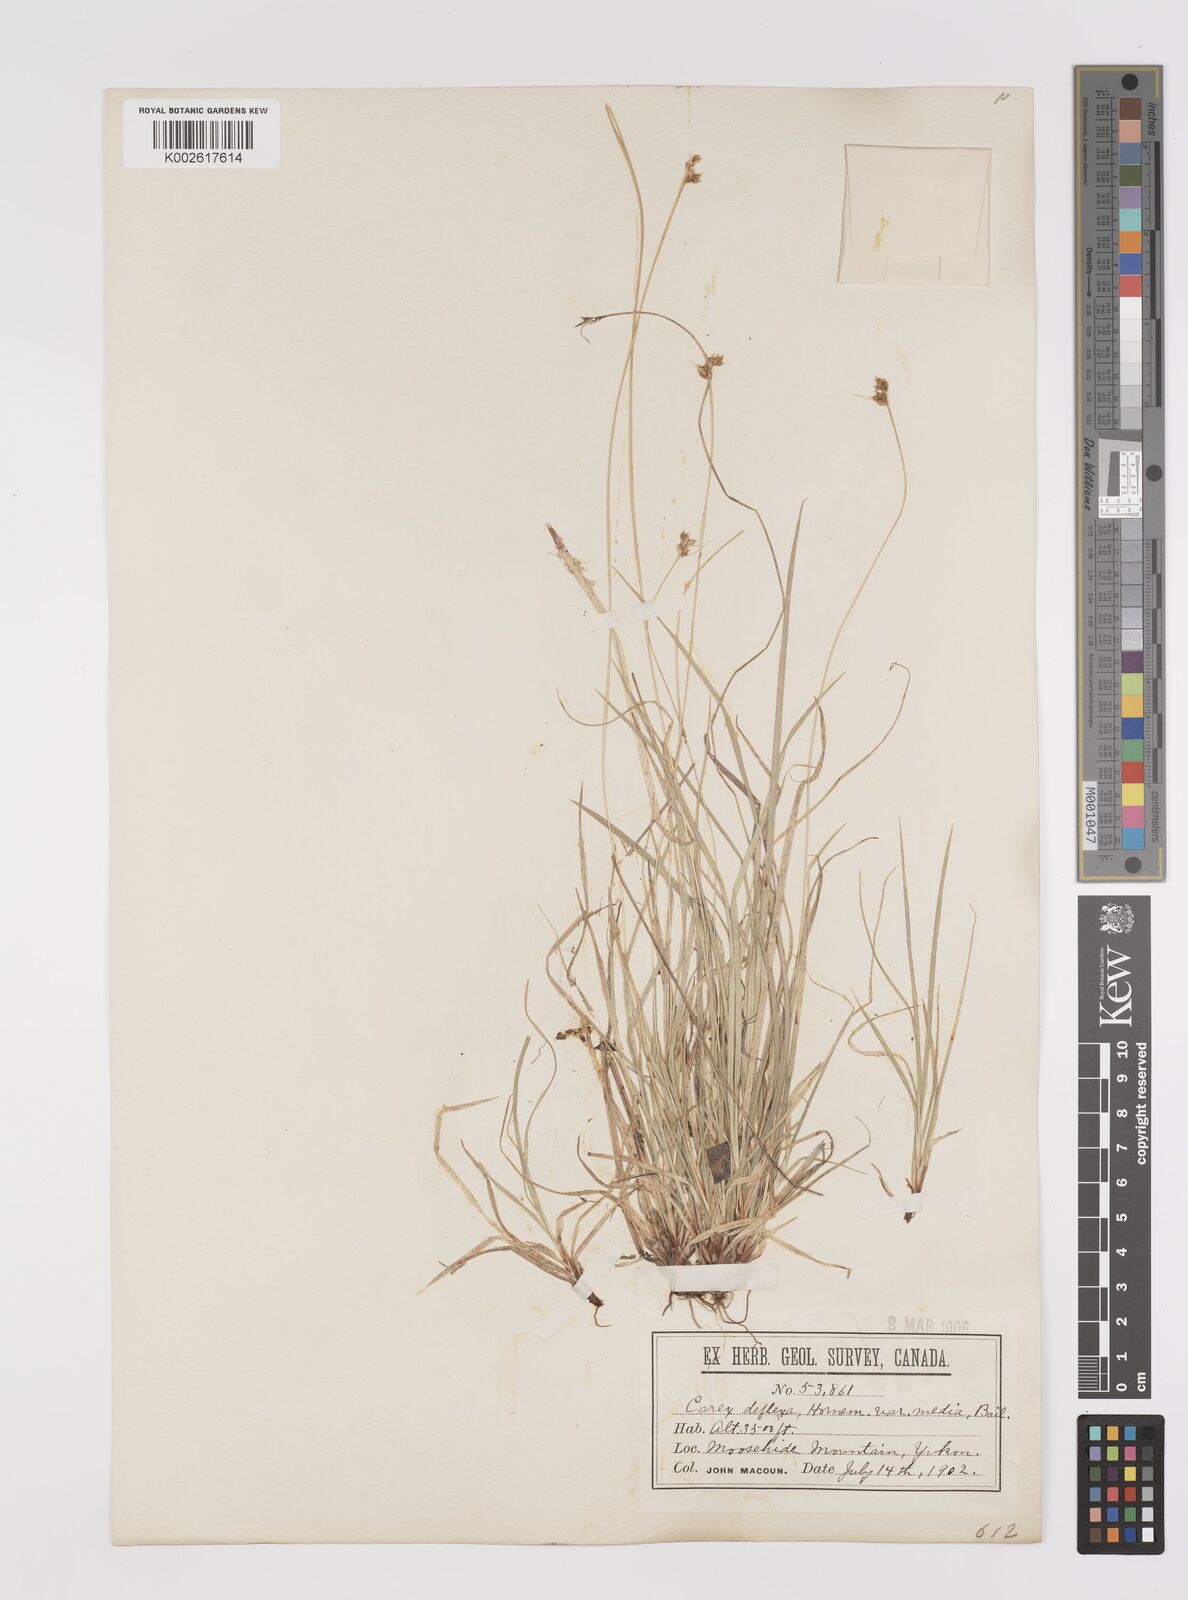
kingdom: Plantae
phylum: Tracheophyta
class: Liliopsida
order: Poales
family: Cyperaceae
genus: Carex
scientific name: Carex rossii
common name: Ross' sedge
